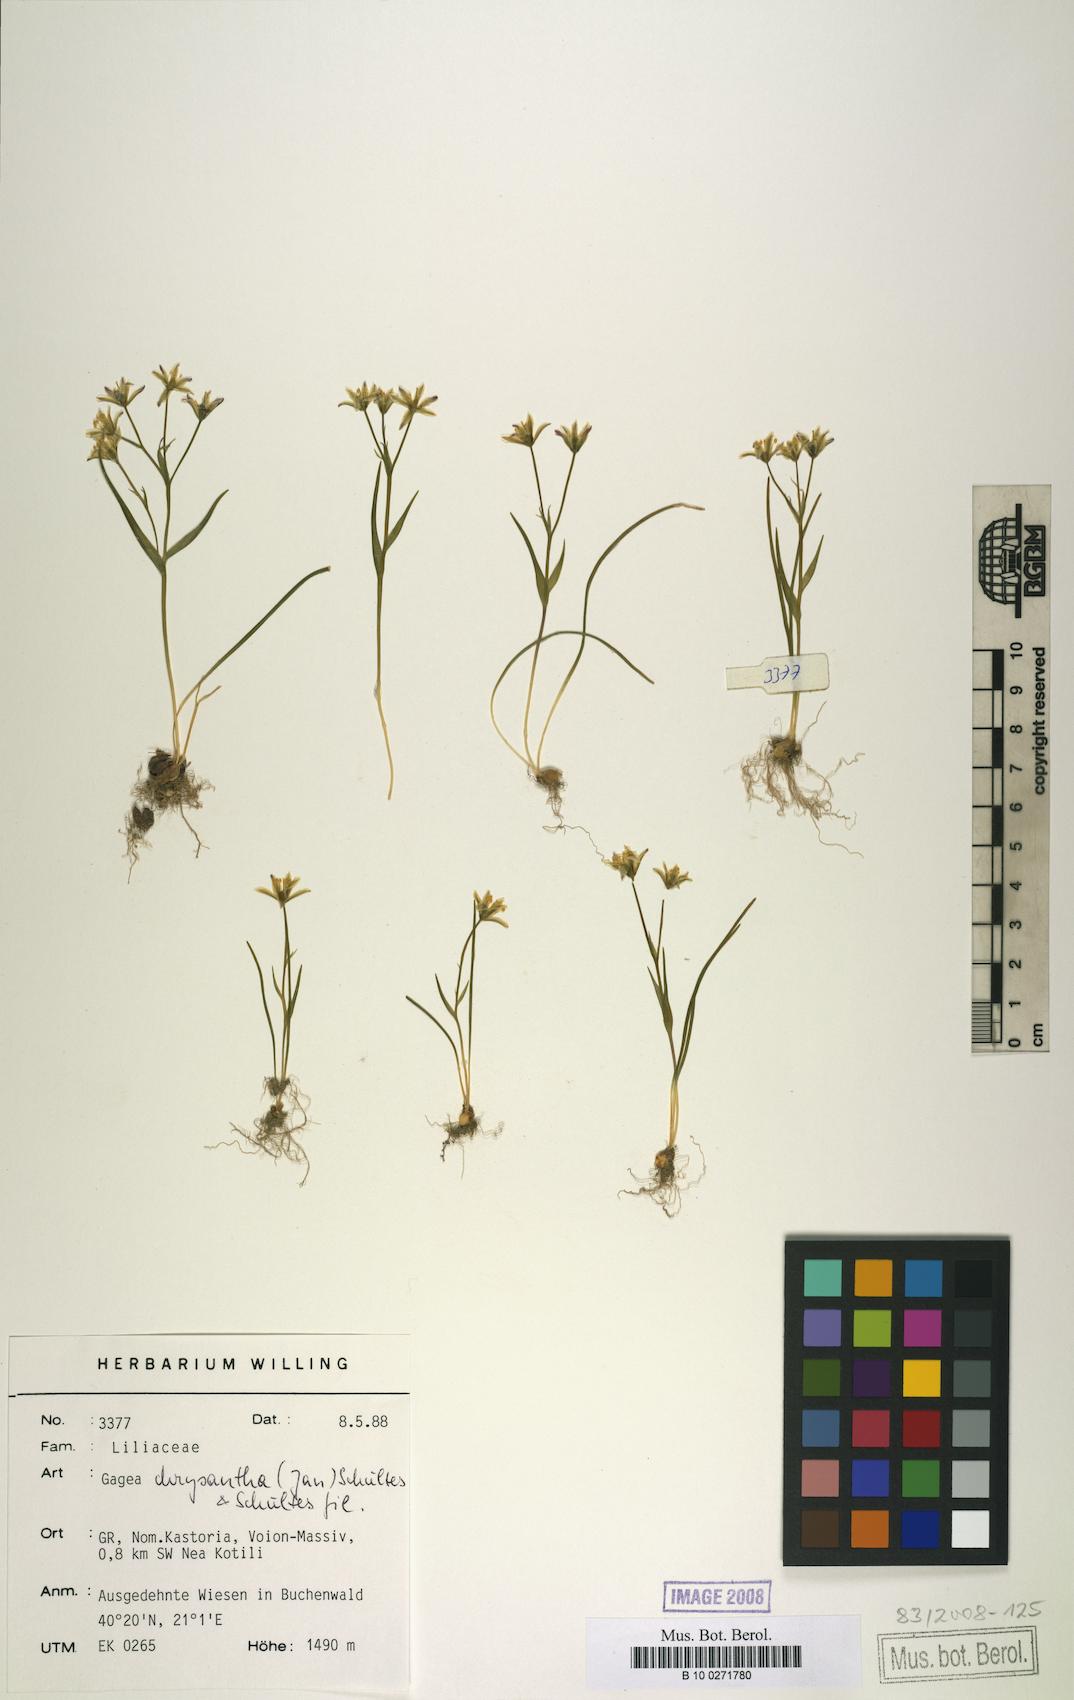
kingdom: Plantae
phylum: Tracheophyta
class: Liliopsida
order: Liliales
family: Liliaceae
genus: Gagea
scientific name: Gagea chrysantha
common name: Golden gagea
